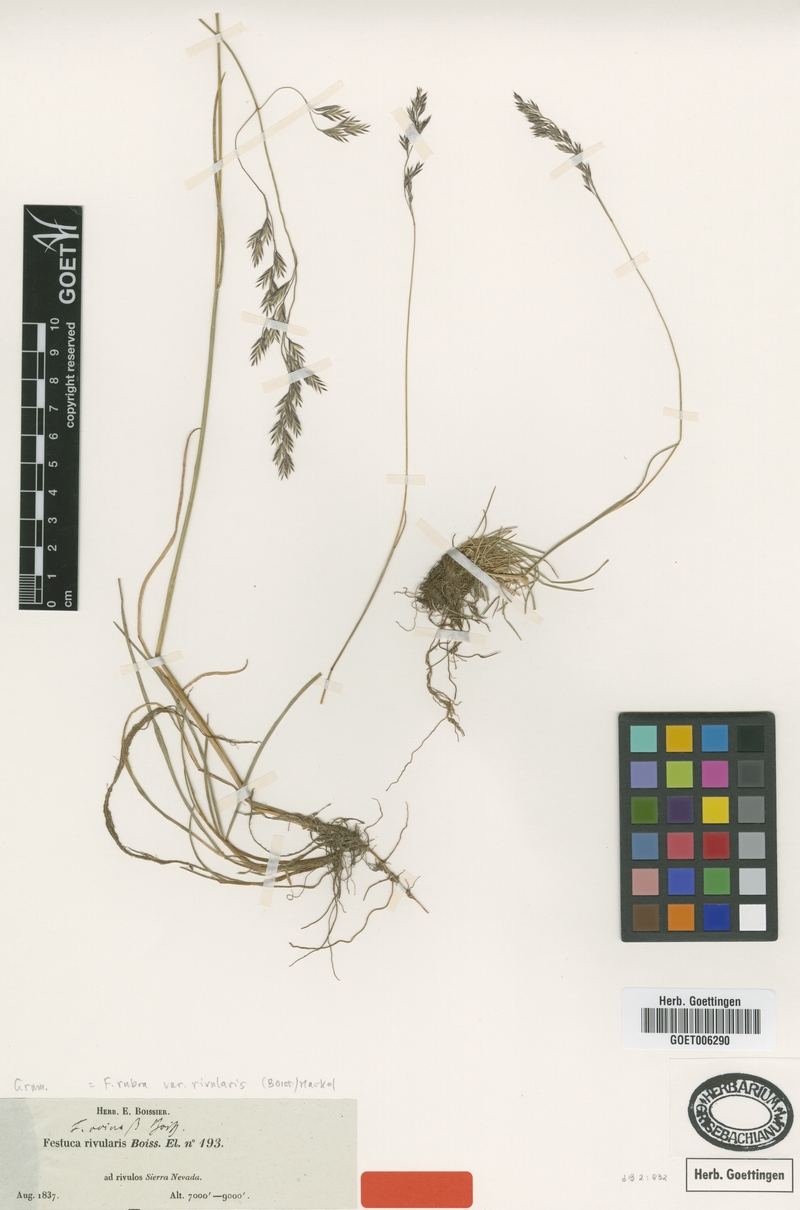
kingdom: Plantae
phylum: Tracheophyta
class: Liliopsida
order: Poales
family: Poaceae
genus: Festuca
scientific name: Festuca rivularis
